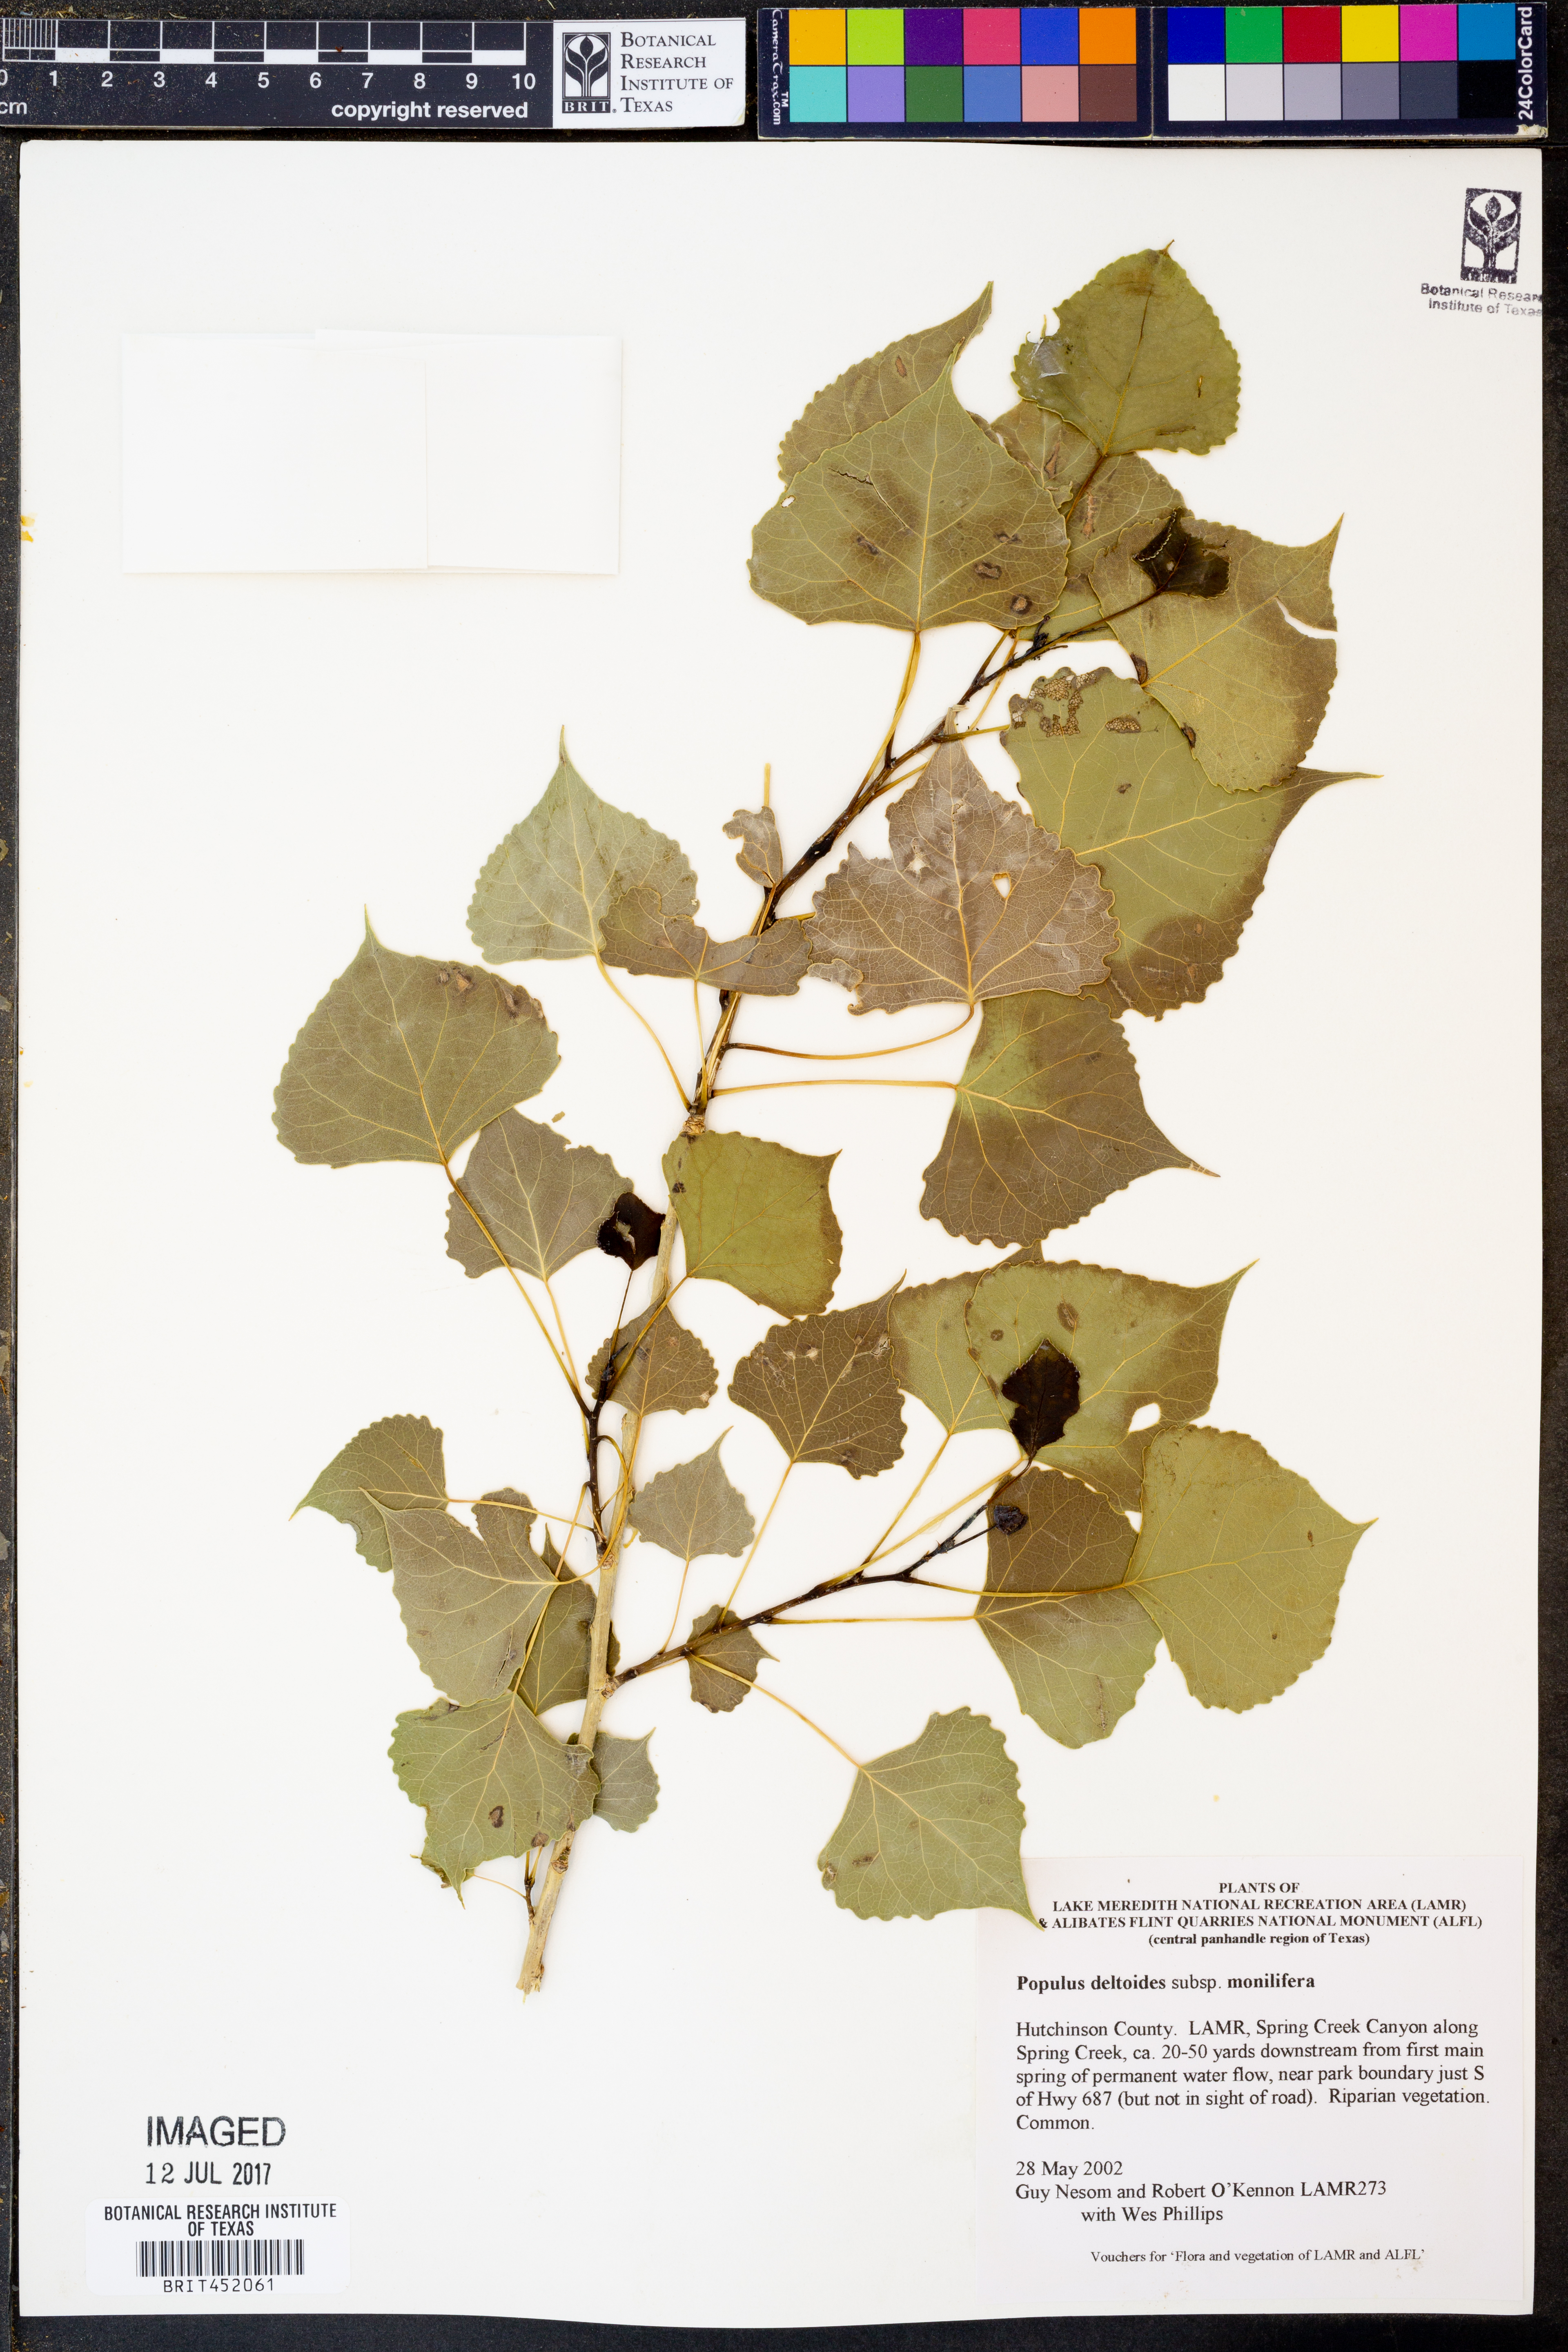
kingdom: Plantae
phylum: Tracheophyta
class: Magnoliopsida
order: Malpighiales
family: Salicaceae
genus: Populus
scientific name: Populus deltoides
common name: Eastern cottonwood
